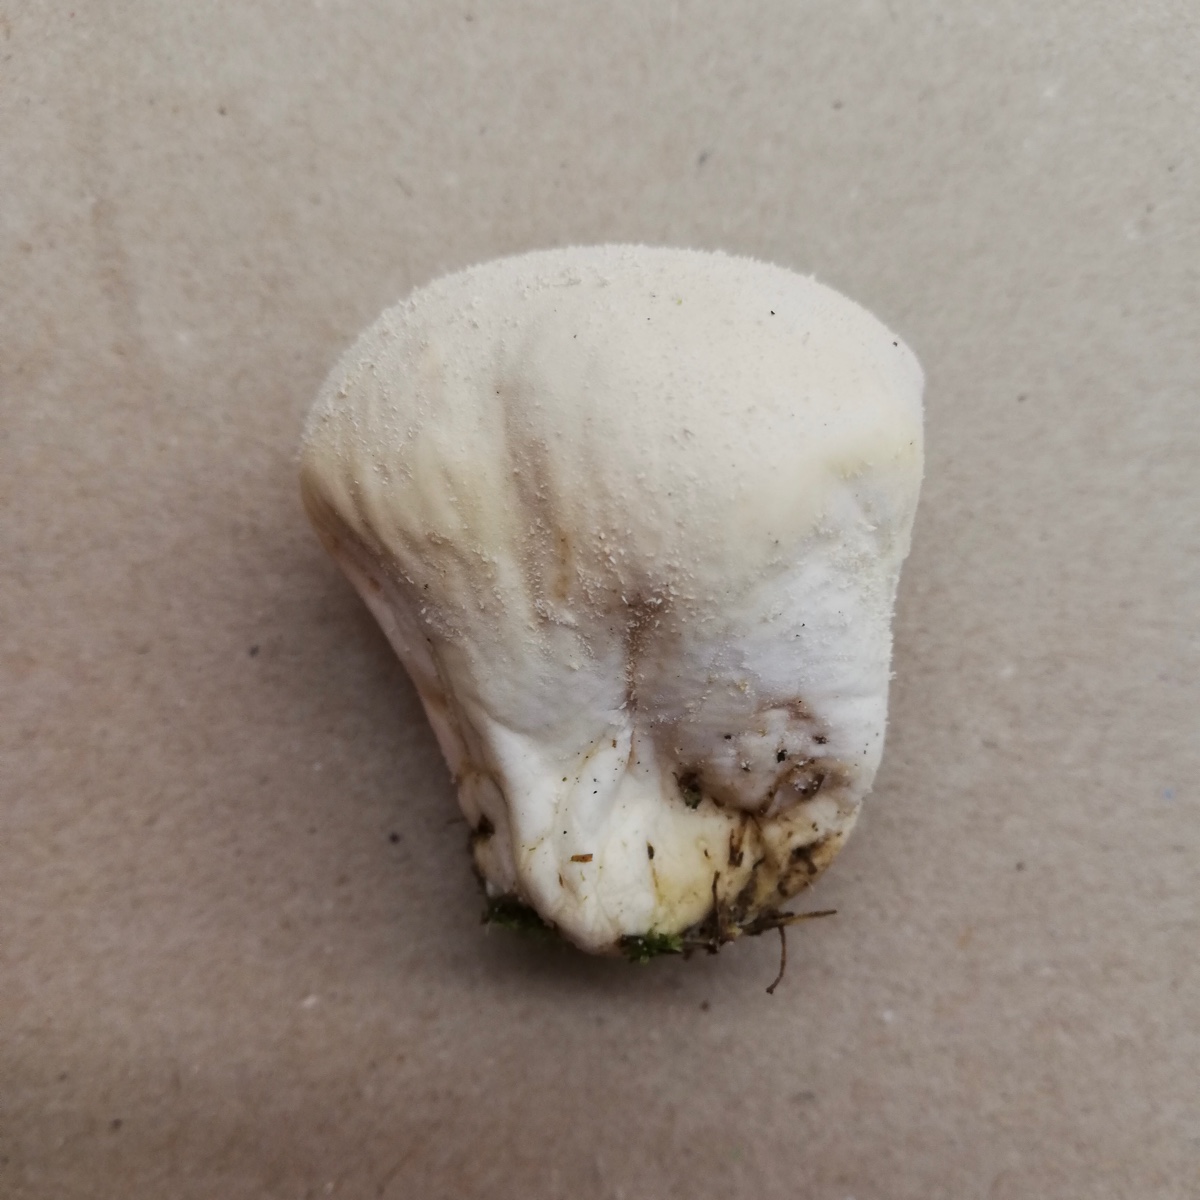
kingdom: Fungi
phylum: Basidiomycota
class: Agaricomycetes
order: Agaricales
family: Lycoperdaceae
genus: Lycoperdon
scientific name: Lycoperdon pratense
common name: flad støvbold
